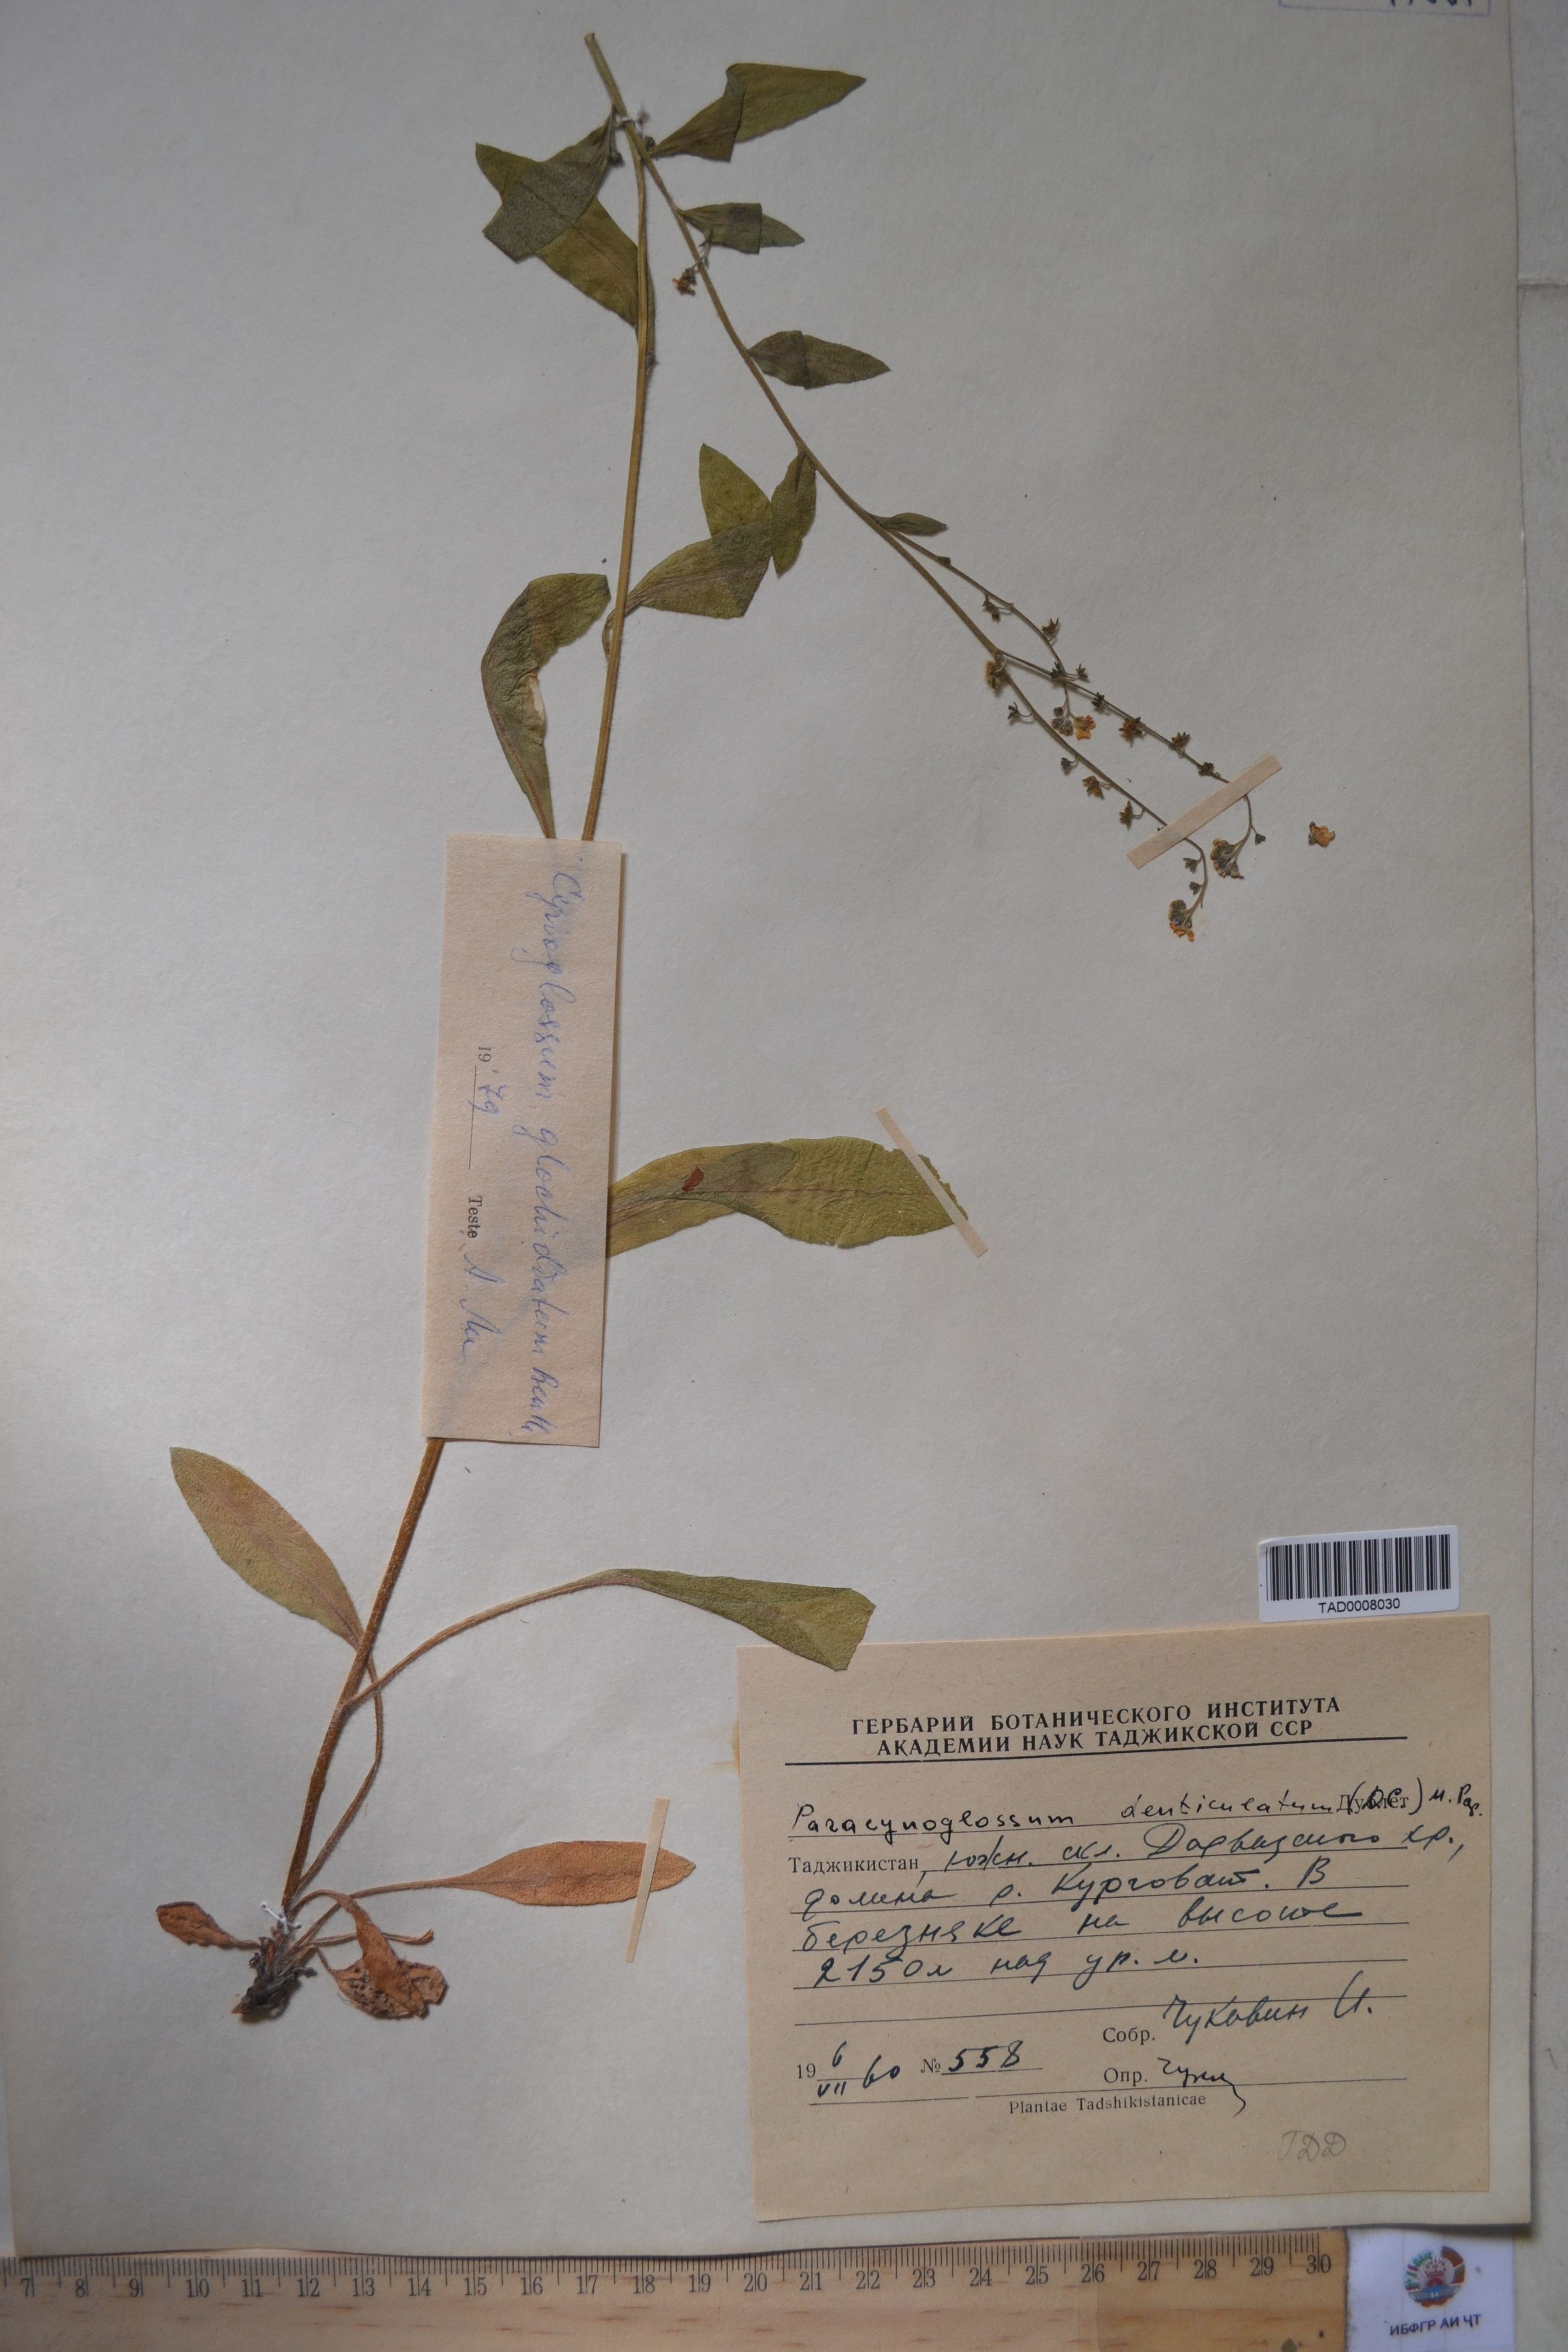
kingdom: Plantae
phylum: Tracheophyta
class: Magnoliopsida
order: Boraginales
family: Boraginaceae
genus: Paracynoglossum
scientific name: Paracynoglossum glochidiatum
